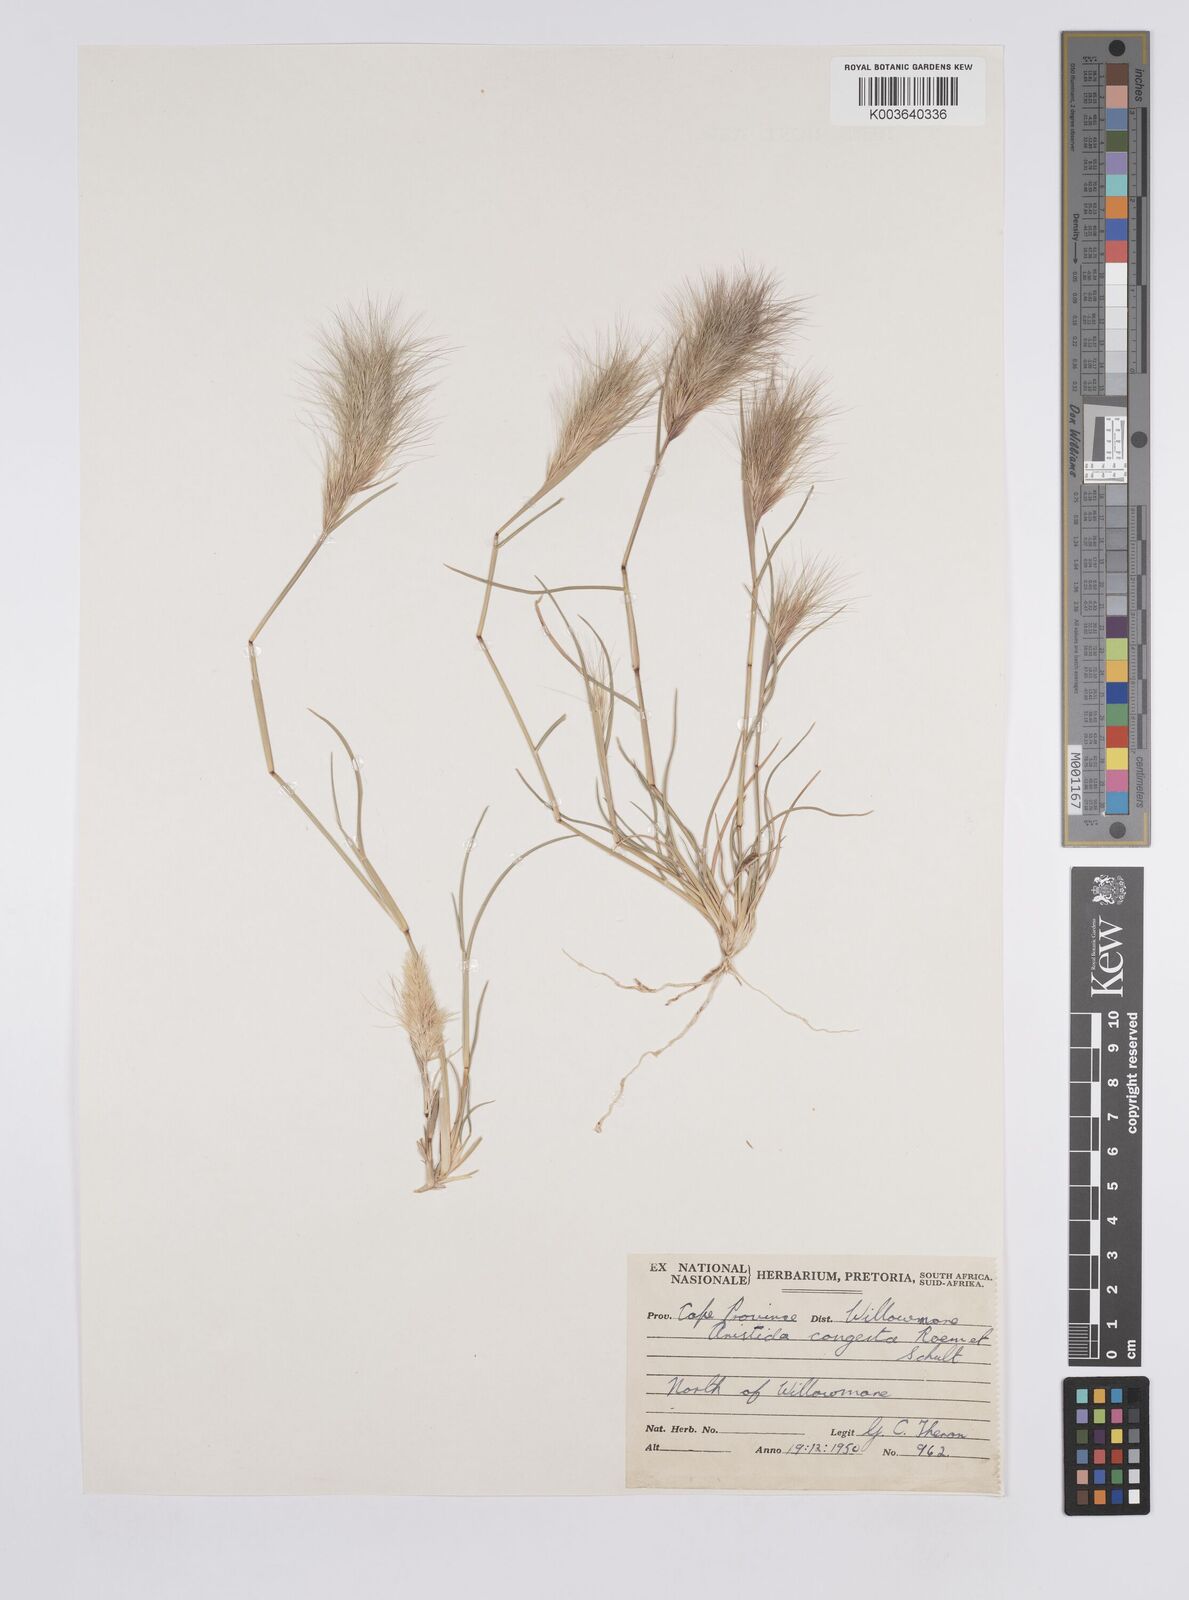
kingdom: Plantae
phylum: Tracheophyta
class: Liliopsida
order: Poales
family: Poaceae
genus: Aristida
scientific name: Aristida congesta
